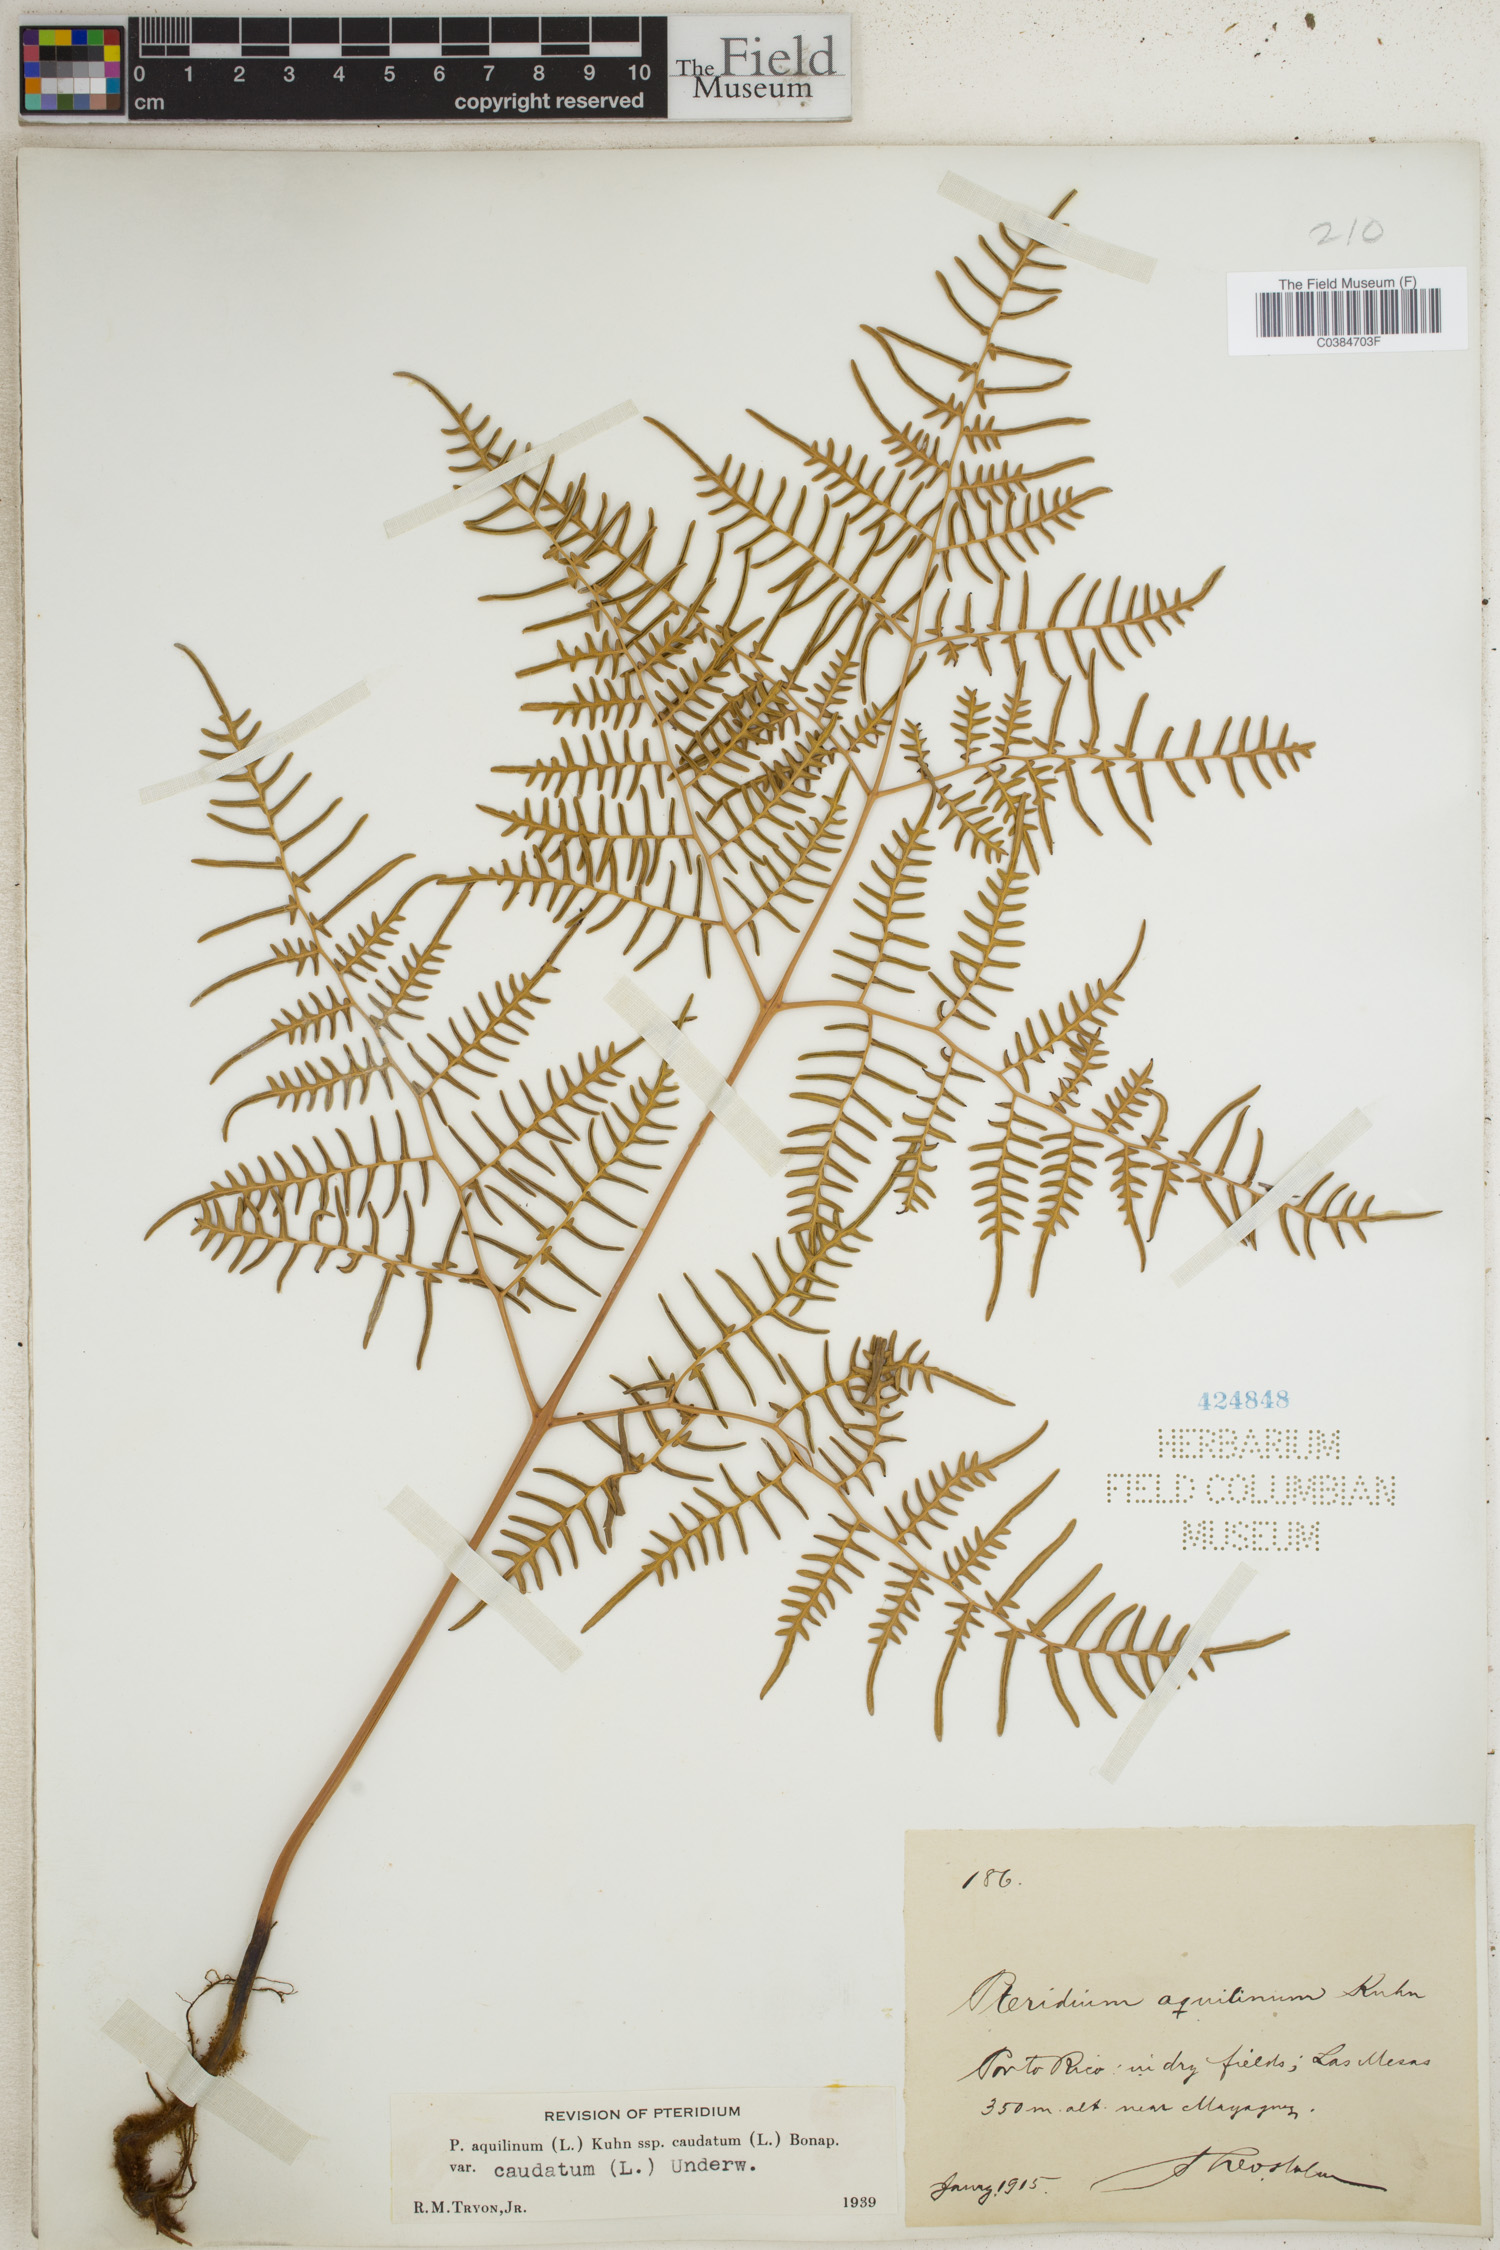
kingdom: Plantae
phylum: Tracheophyta
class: Polypodiopsida
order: Polypodiales
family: Dennstaedtiaceae
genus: Pteridium
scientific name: Pteridium aquilinum
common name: Bracken
